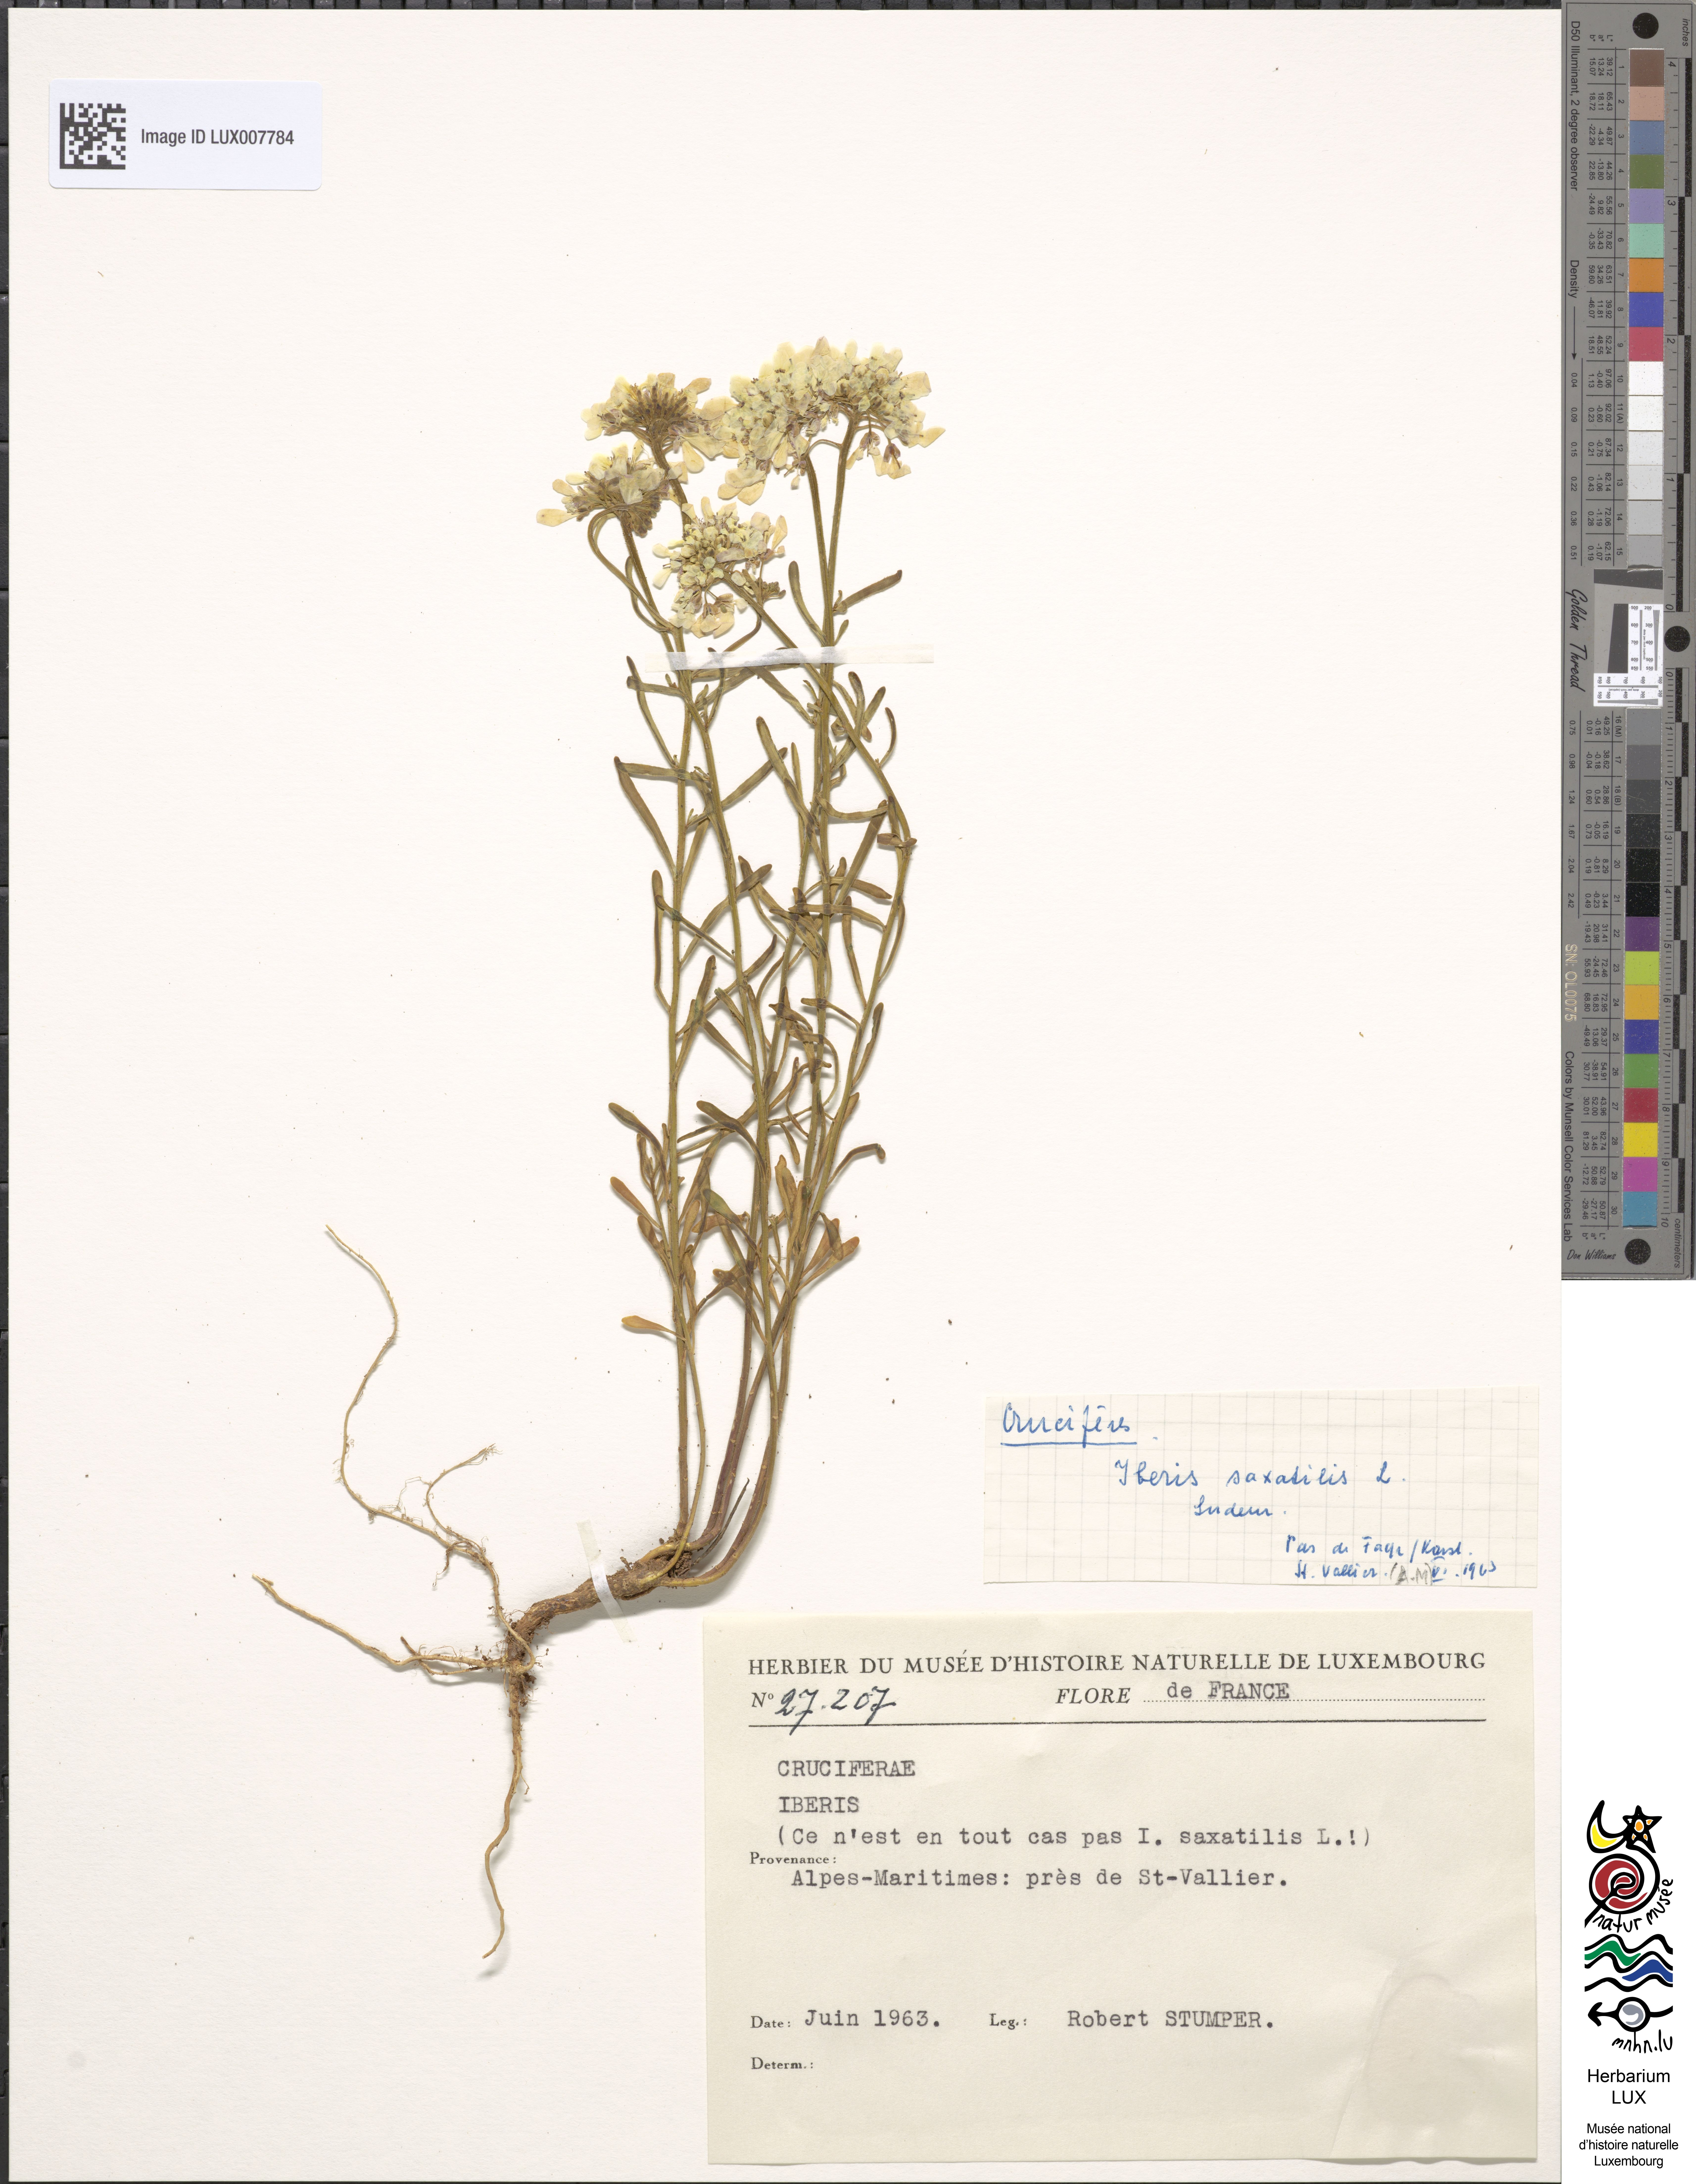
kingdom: Plantae
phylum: Tracheophyta
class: Magnoliopsida
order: Brassicales
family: Brassicaceae
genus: Iberis
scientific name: Iberis
